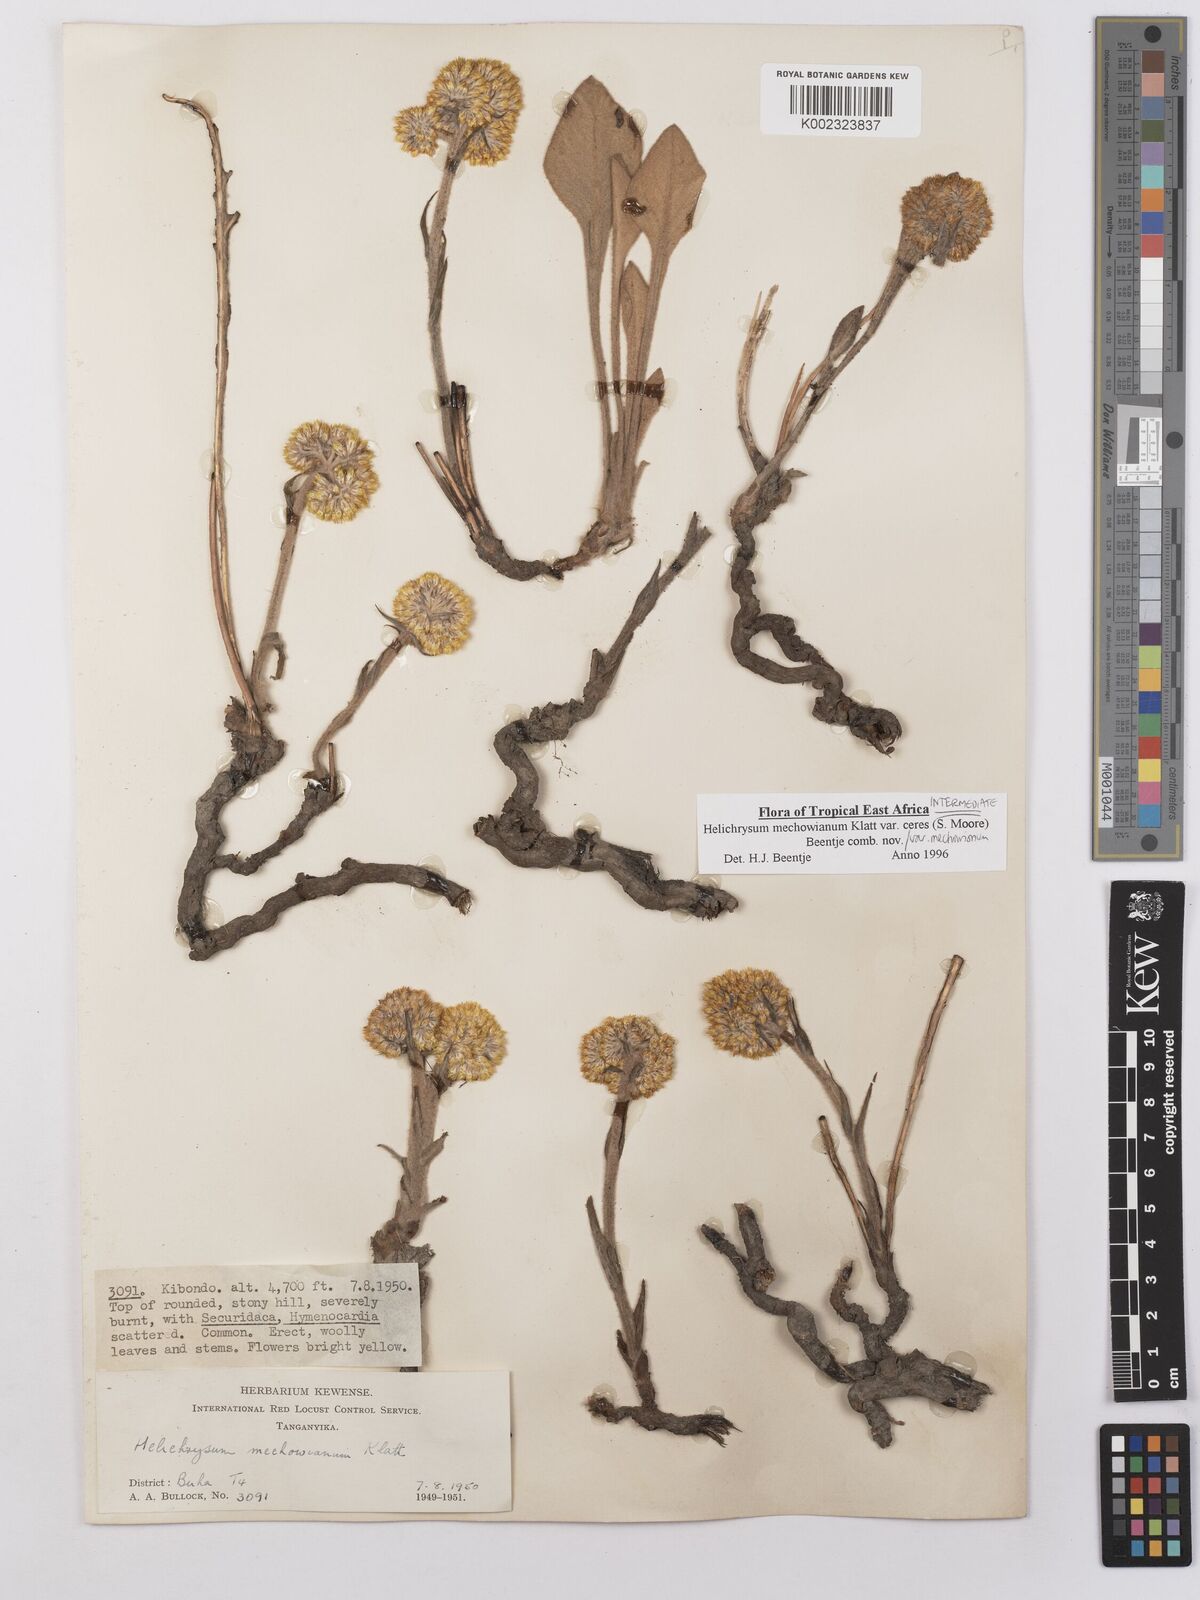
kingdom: Plantae
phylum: Tracheophyta
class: Magnoliopsida
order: Asterales
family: Asteraceae
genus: Helichrysum
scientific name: Helichrysum mechowianum
